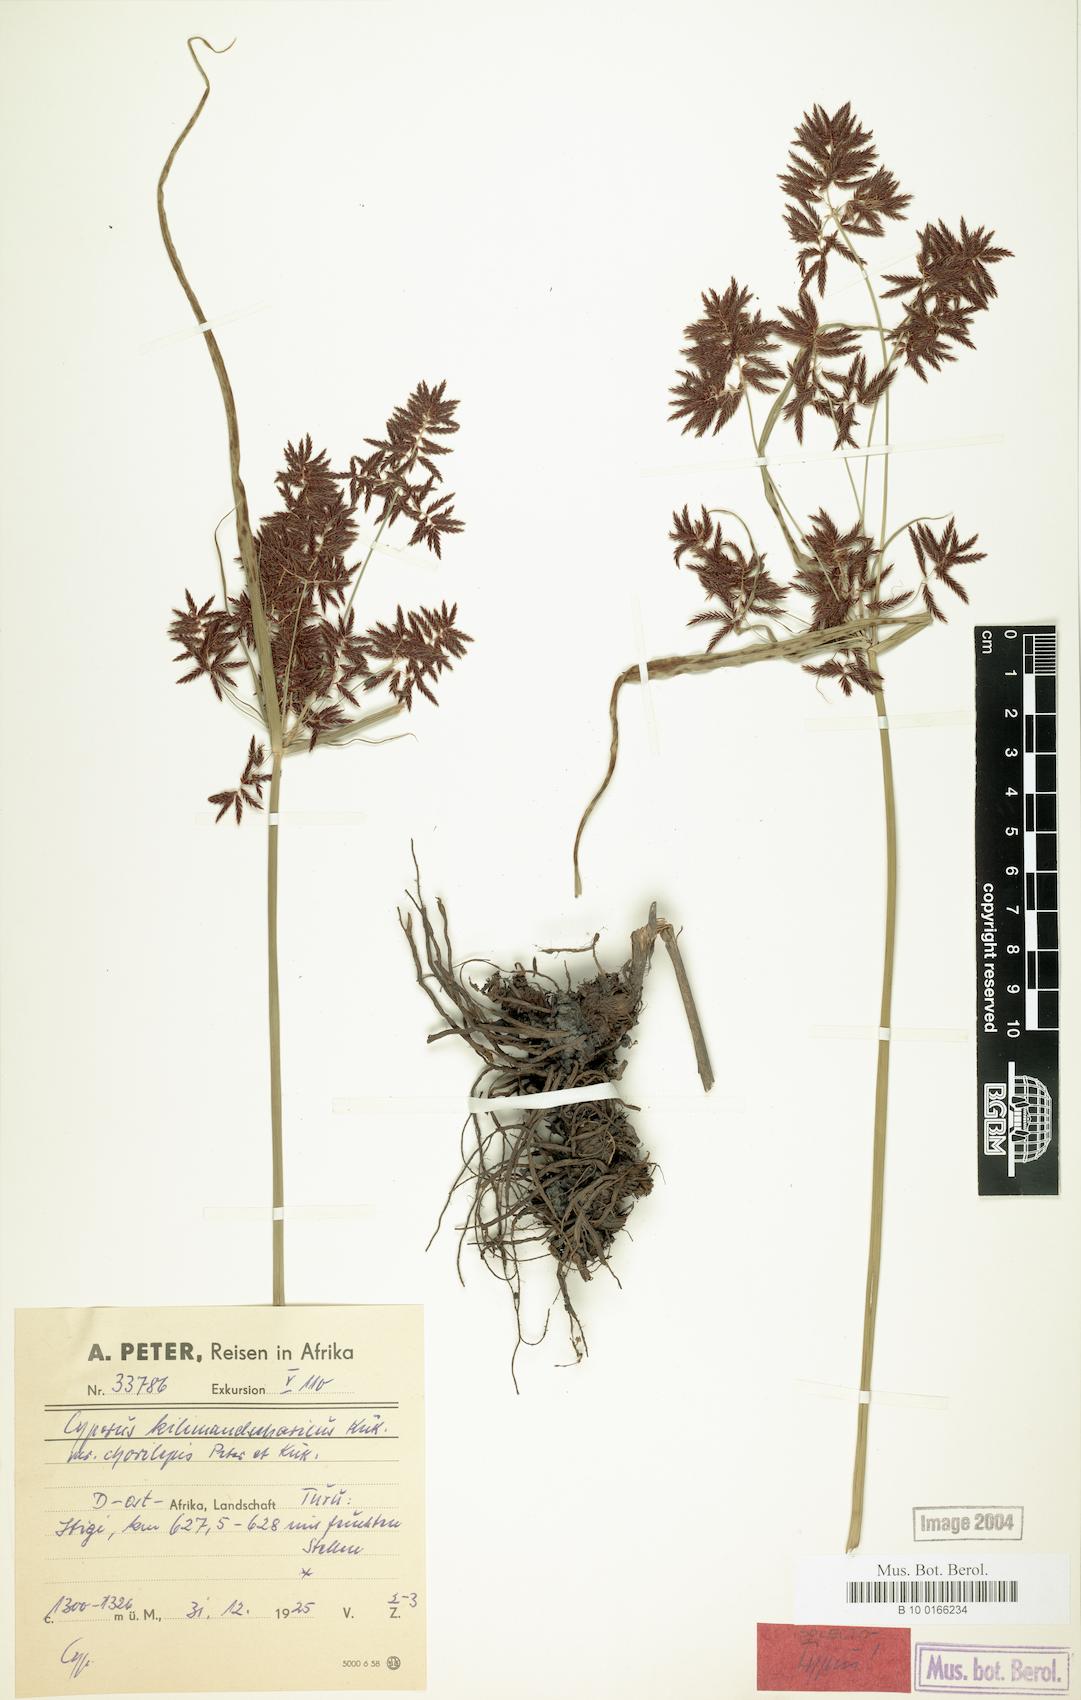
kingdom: Plantae
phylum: Tracheophyta
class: Liliopsida
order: Poales
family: Cyperaceae
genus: Cyperus
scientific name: Cyperus kilimandscharicus
